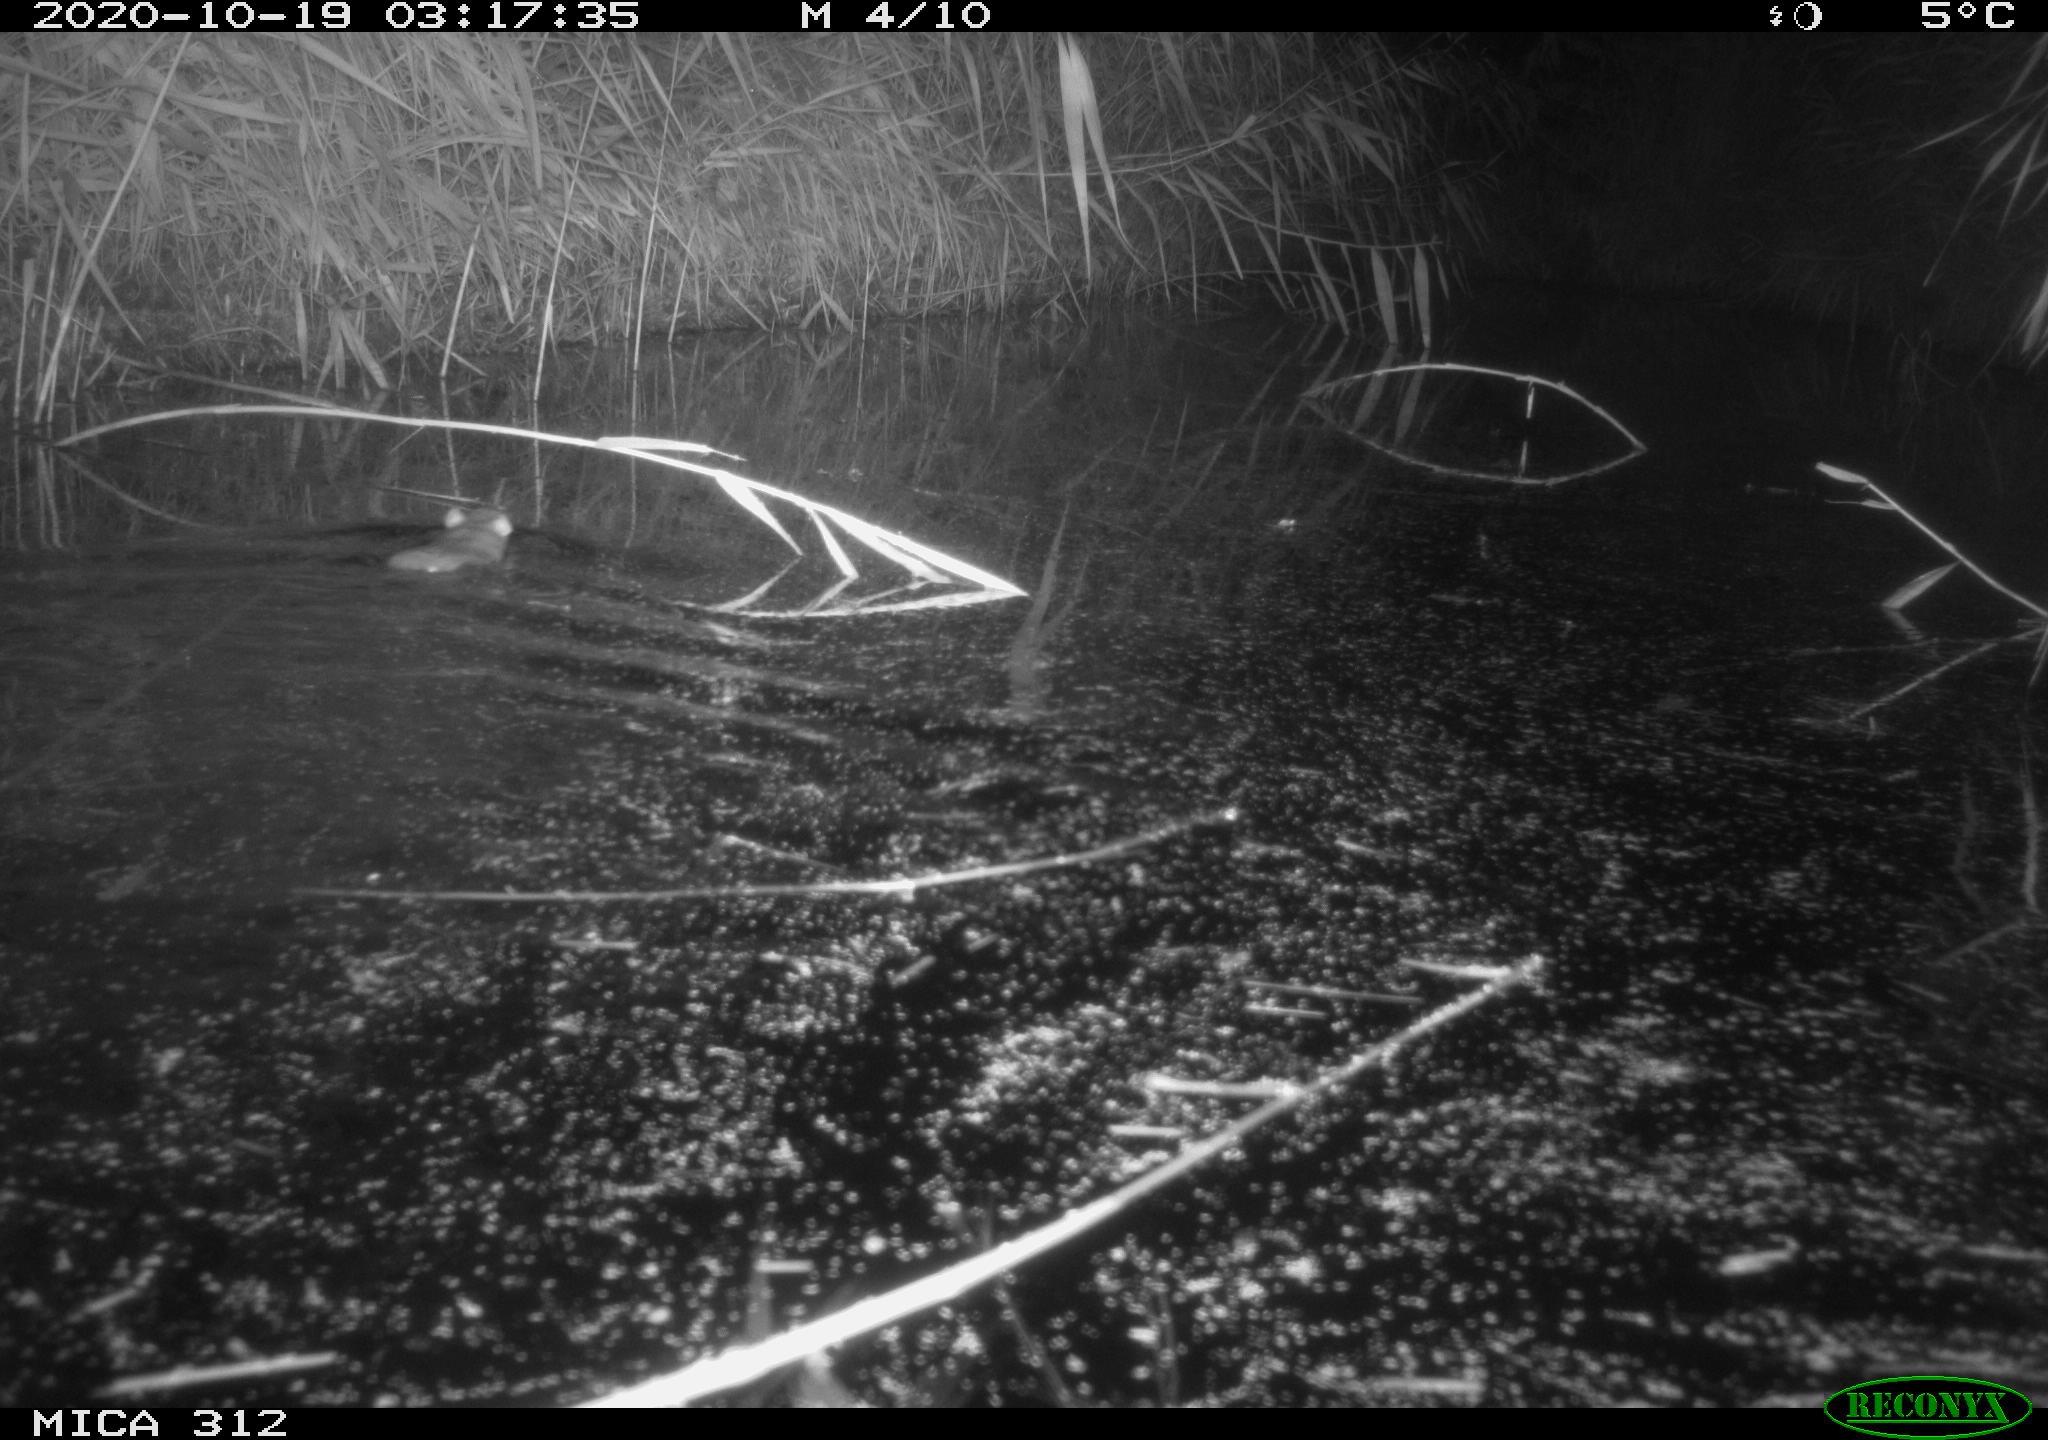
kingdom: Animalia
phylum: Chordata
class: Mammalia
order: Rodentia
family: Muridae
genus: Rattus
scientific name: Rattus norvegicus
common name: Brown rat
